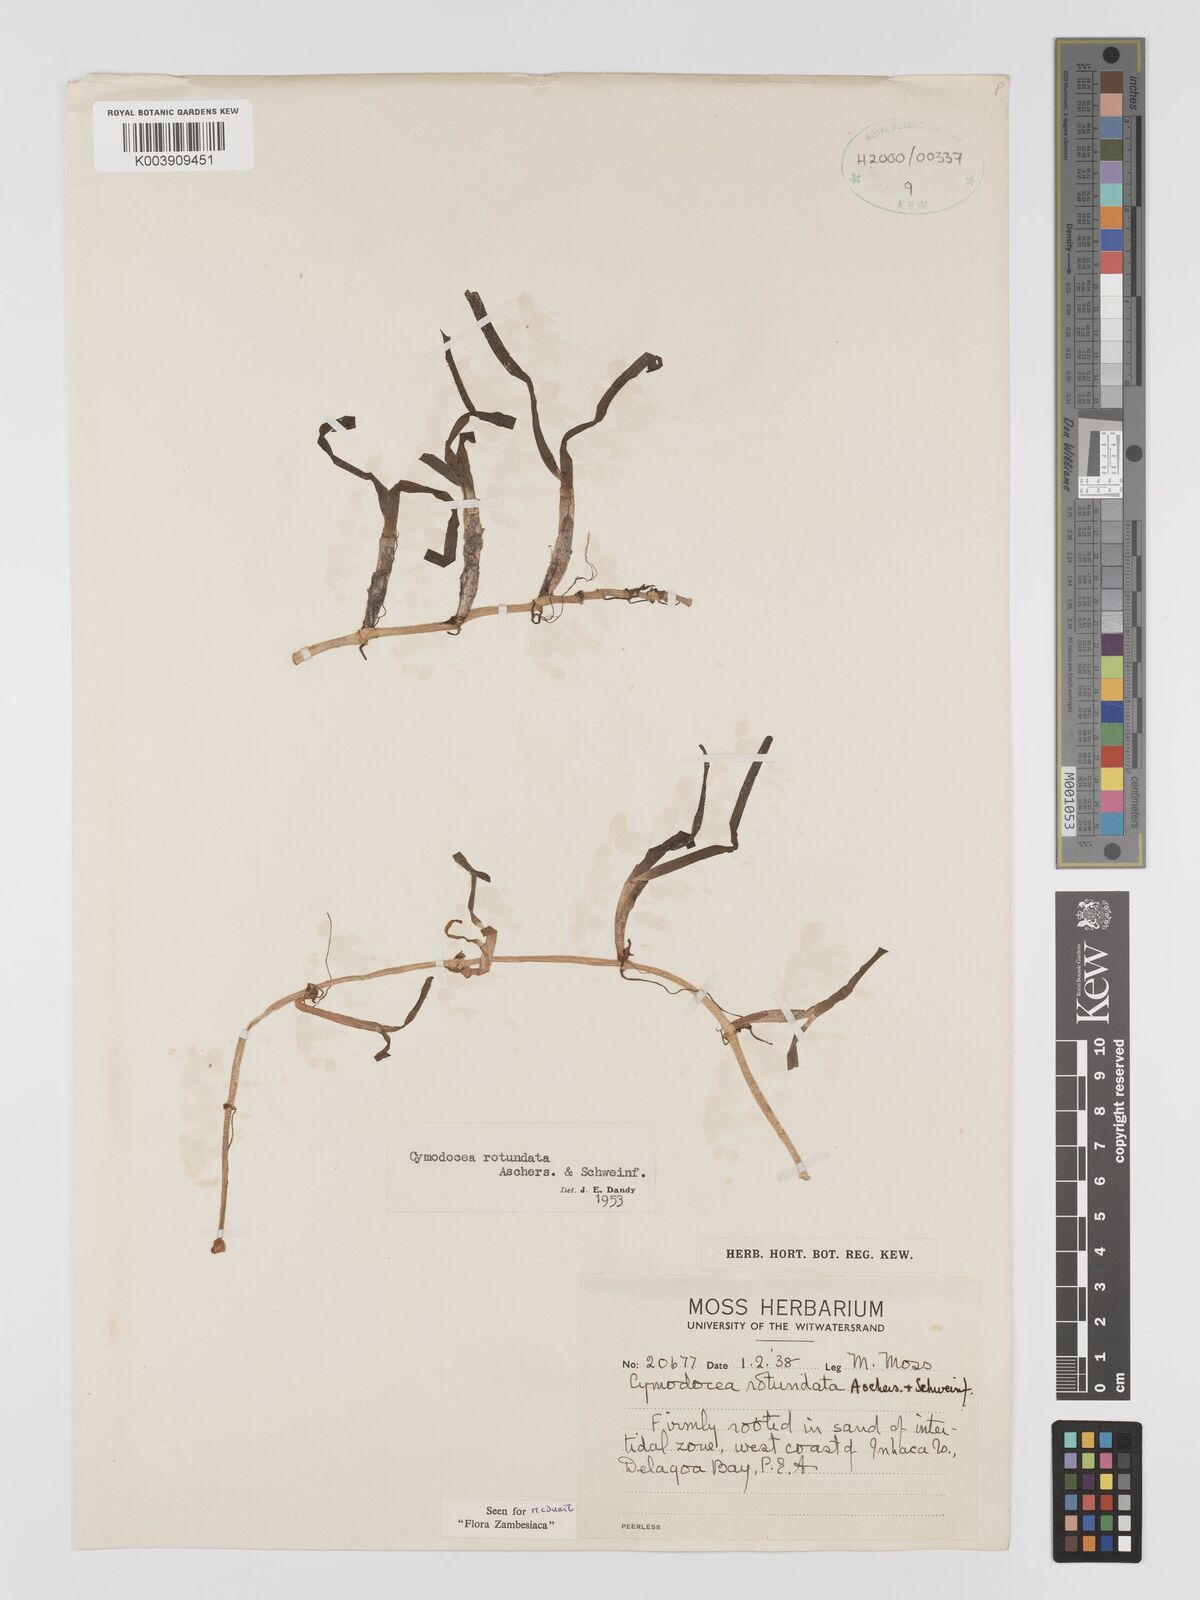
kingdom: Plantae
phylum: Tracheophyta
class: Liliopsida
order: Alismatales
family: Cymodoceaceae
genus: Cymodocea
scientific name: Cymodocea rotundata
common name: Species code: cr
